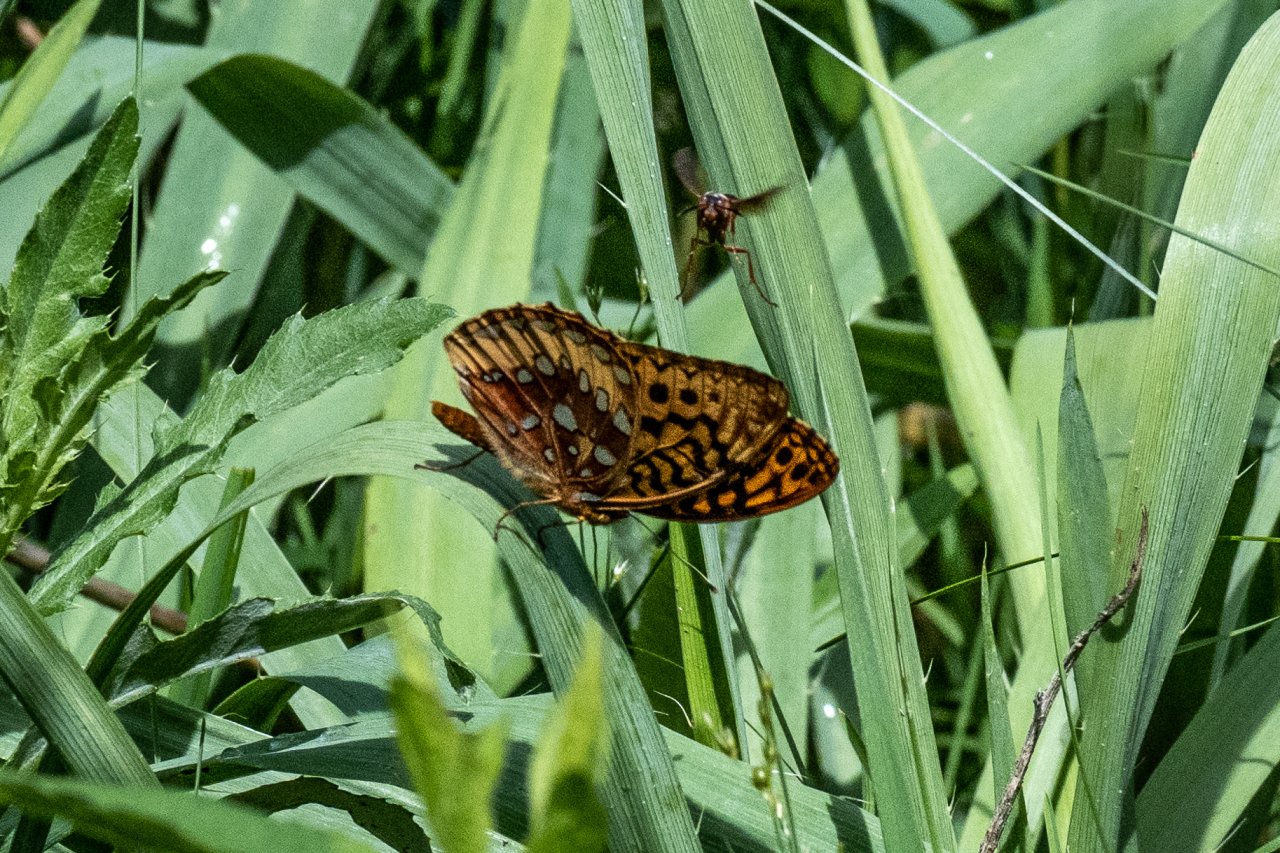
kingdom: Animalia
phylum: Arthropoda
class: Insecta
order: Lepidoptera
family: Nymphalidae
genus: Speyeria
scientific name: Speyeria cybele
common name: Great Spangled Fritillary
